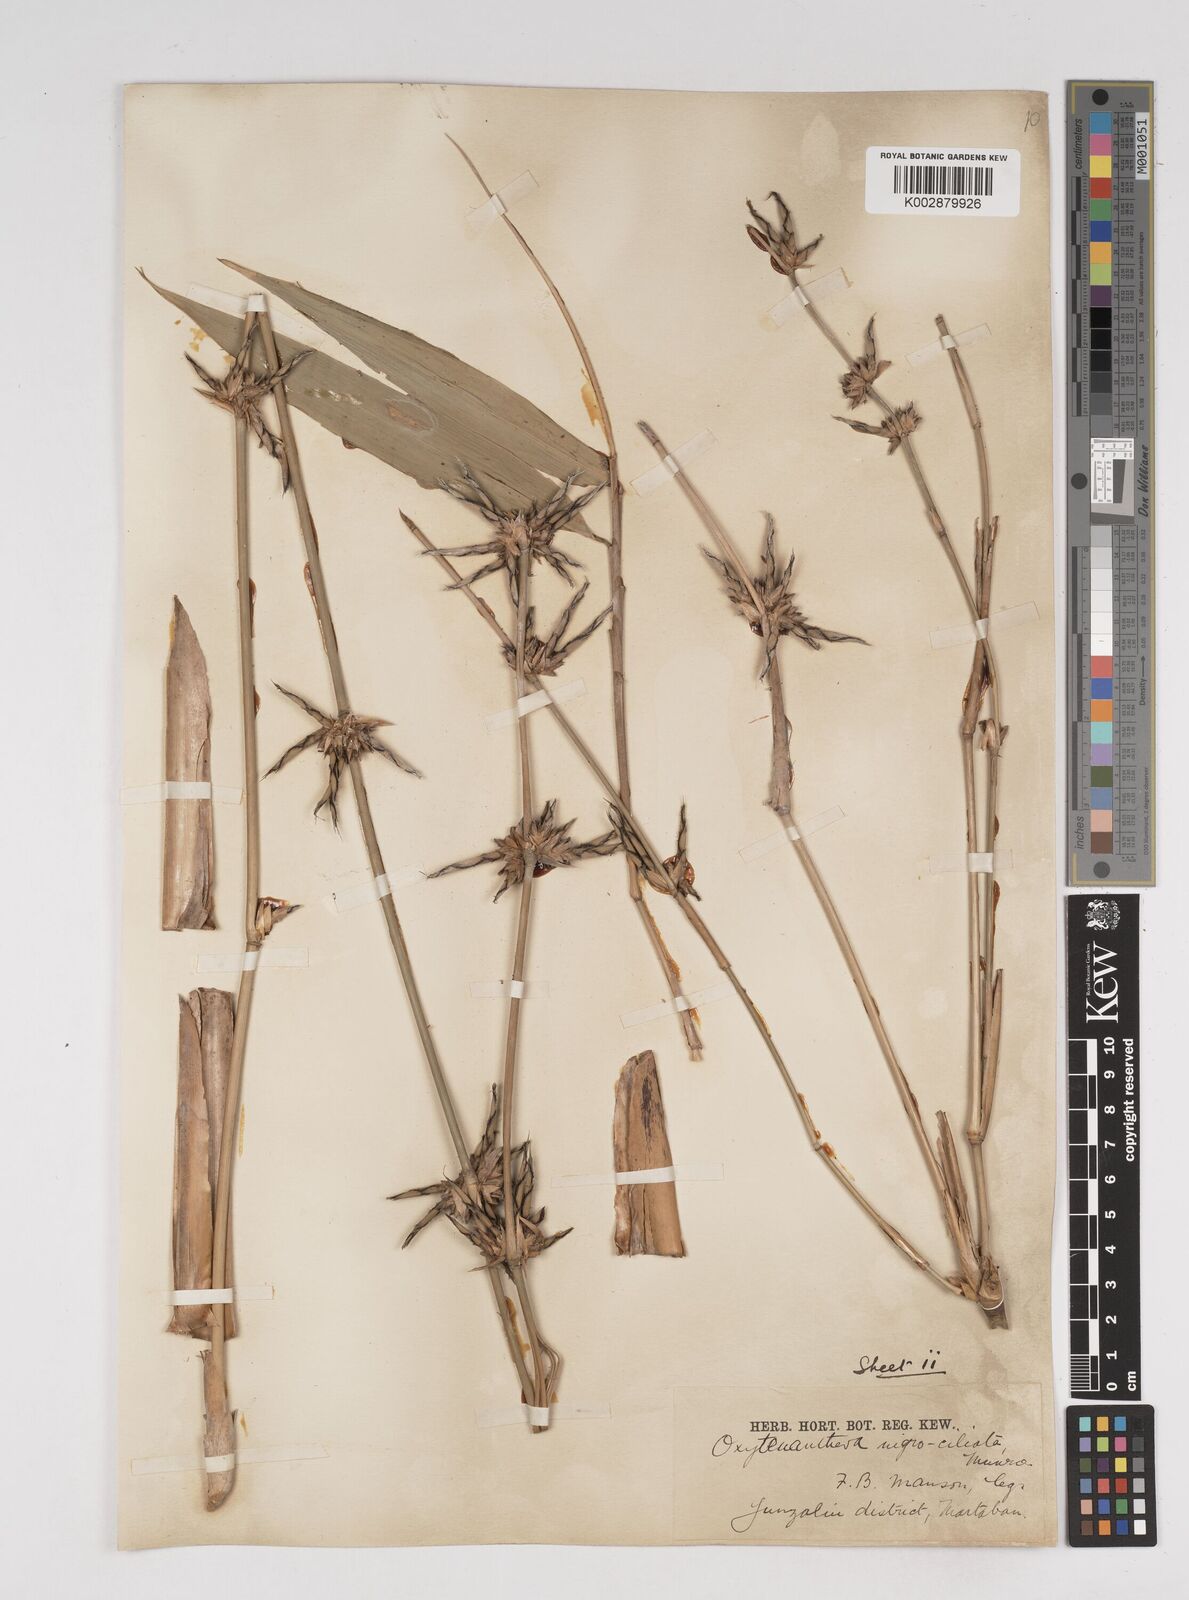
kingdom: Plantae
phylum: Tracheophyta
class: Liliopsida
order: Poales
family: Poaceae
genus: Gigantochloa
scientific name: Gigantochloa nigrociliata
